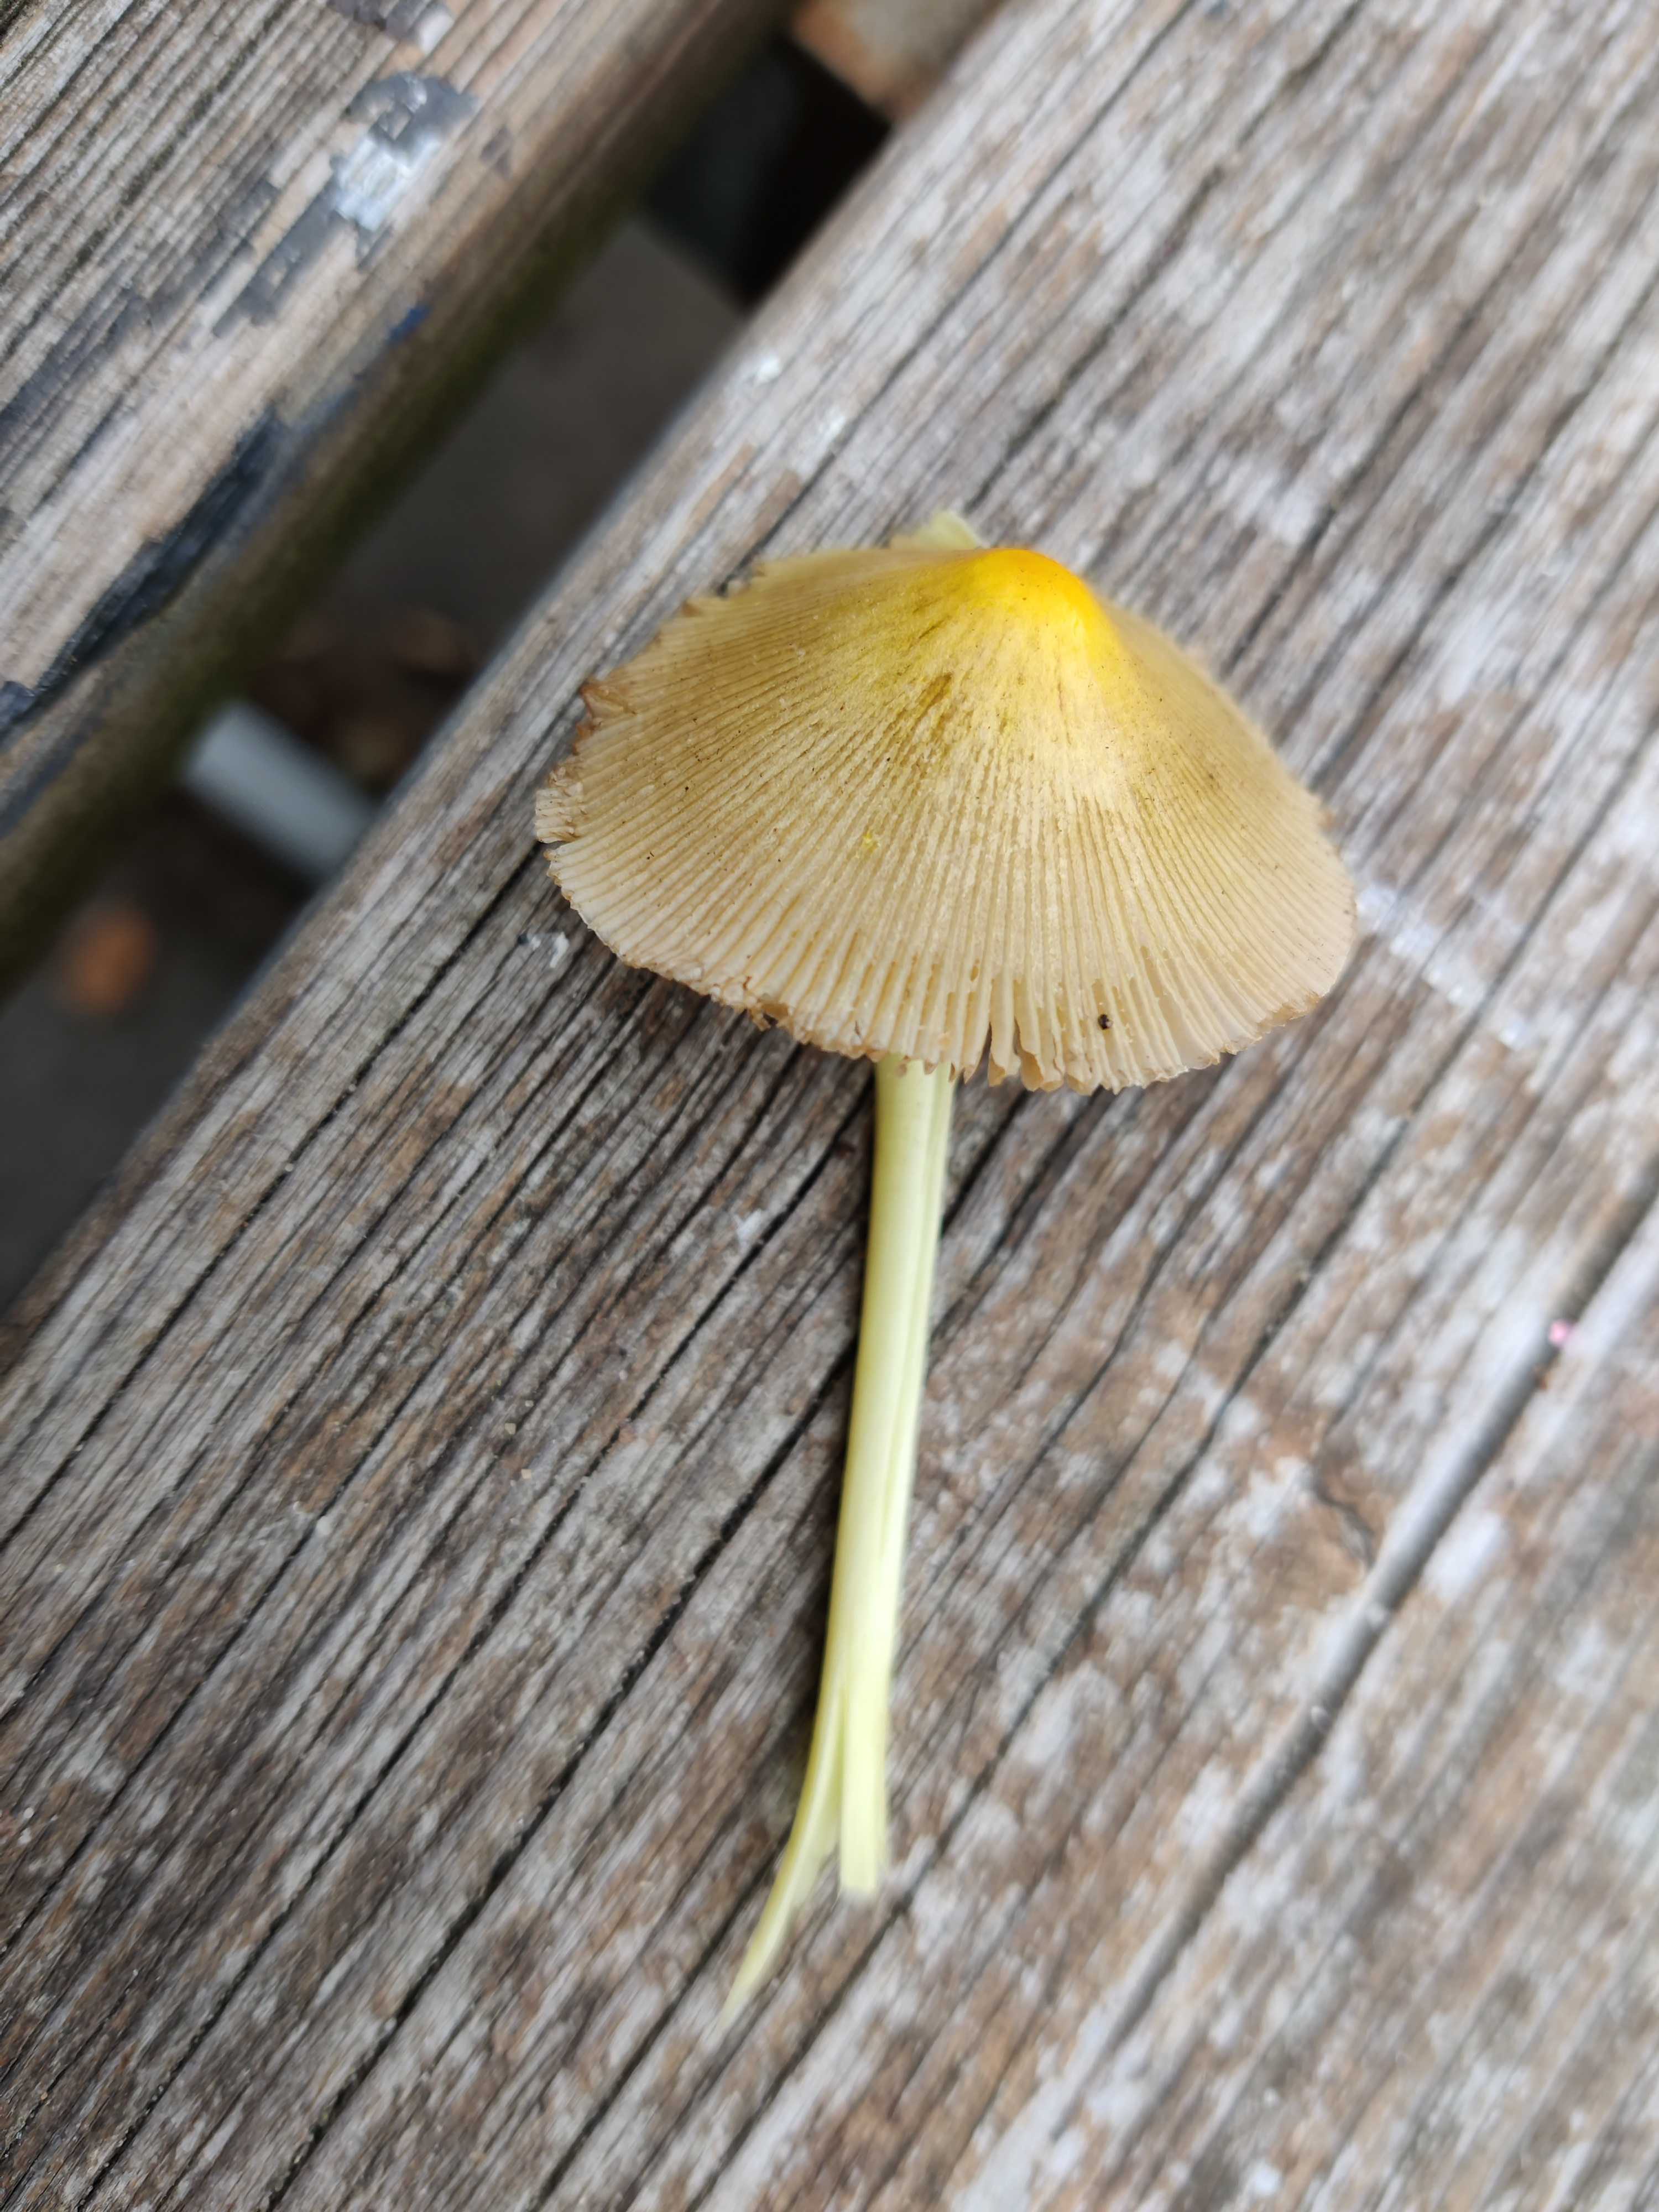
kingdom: Fungi
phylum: Basidiomycota
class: Agaricomycetes
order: Agaricales
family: Bolbitiaceae
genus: Bolbitius
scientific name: Bolbitius titubans
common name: almindelig gulhat
